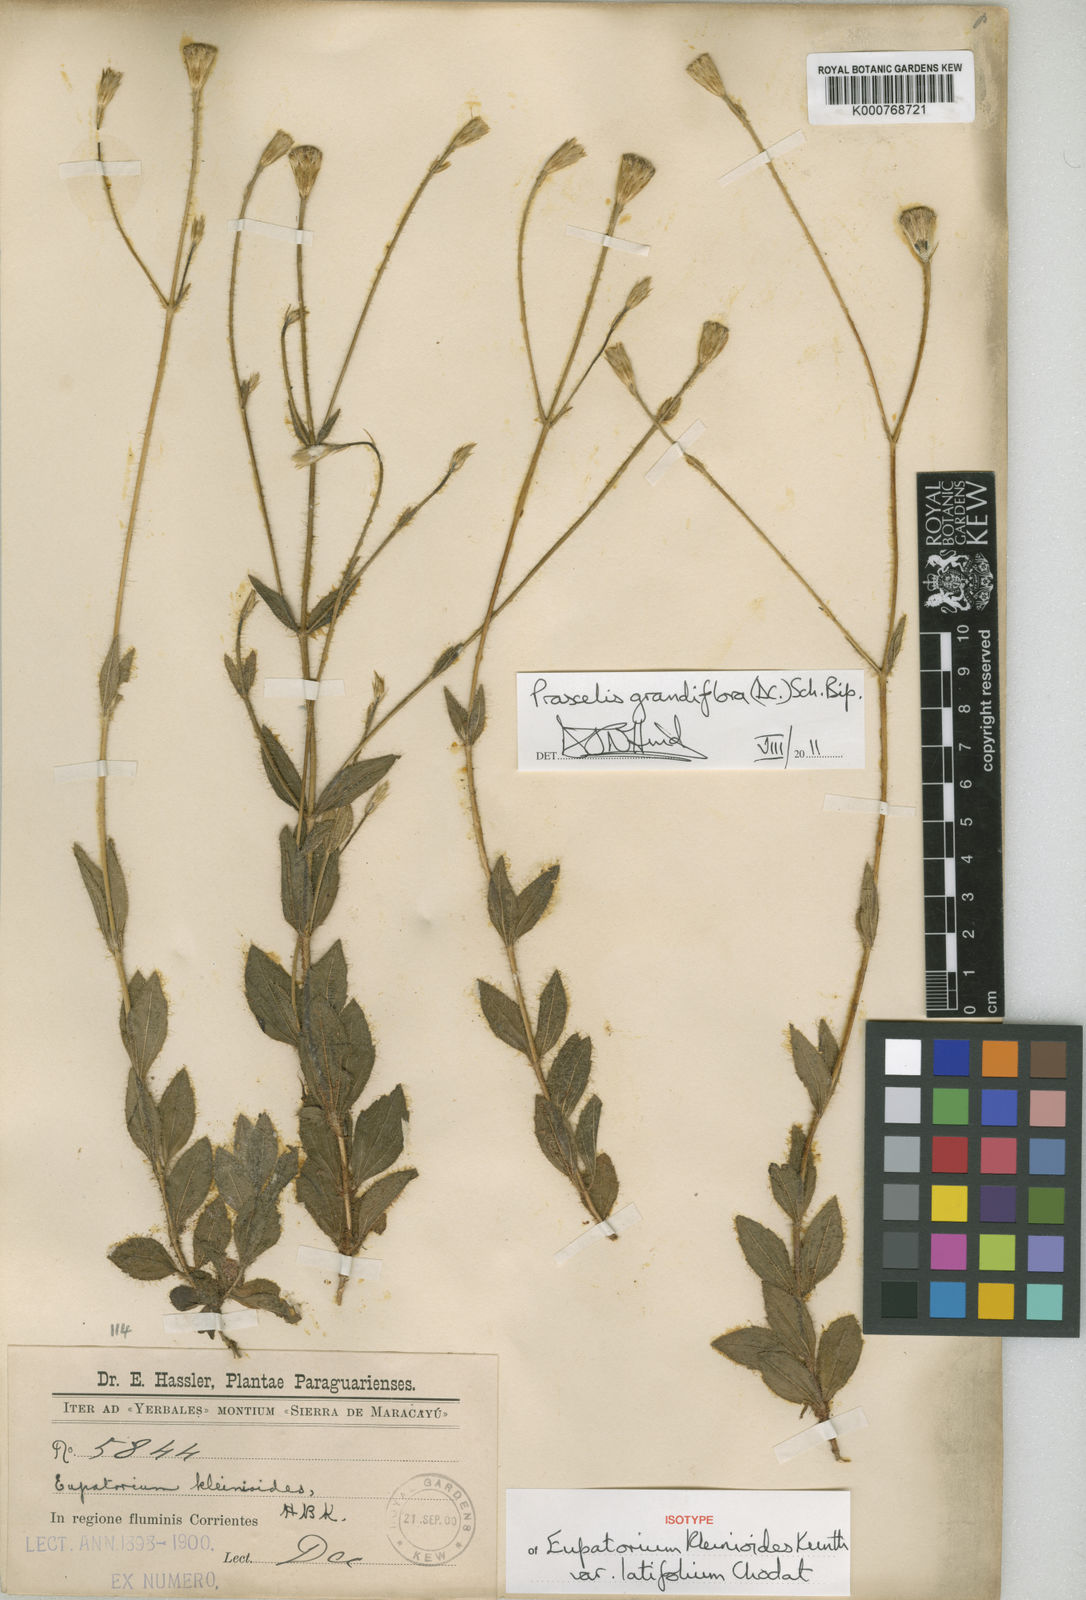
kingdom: Plantae
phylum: Tracheophyta
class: Magnoliopsida
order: Asterales
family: Asteraceae
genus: Praxelis
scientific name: Praxelis grandiflora
